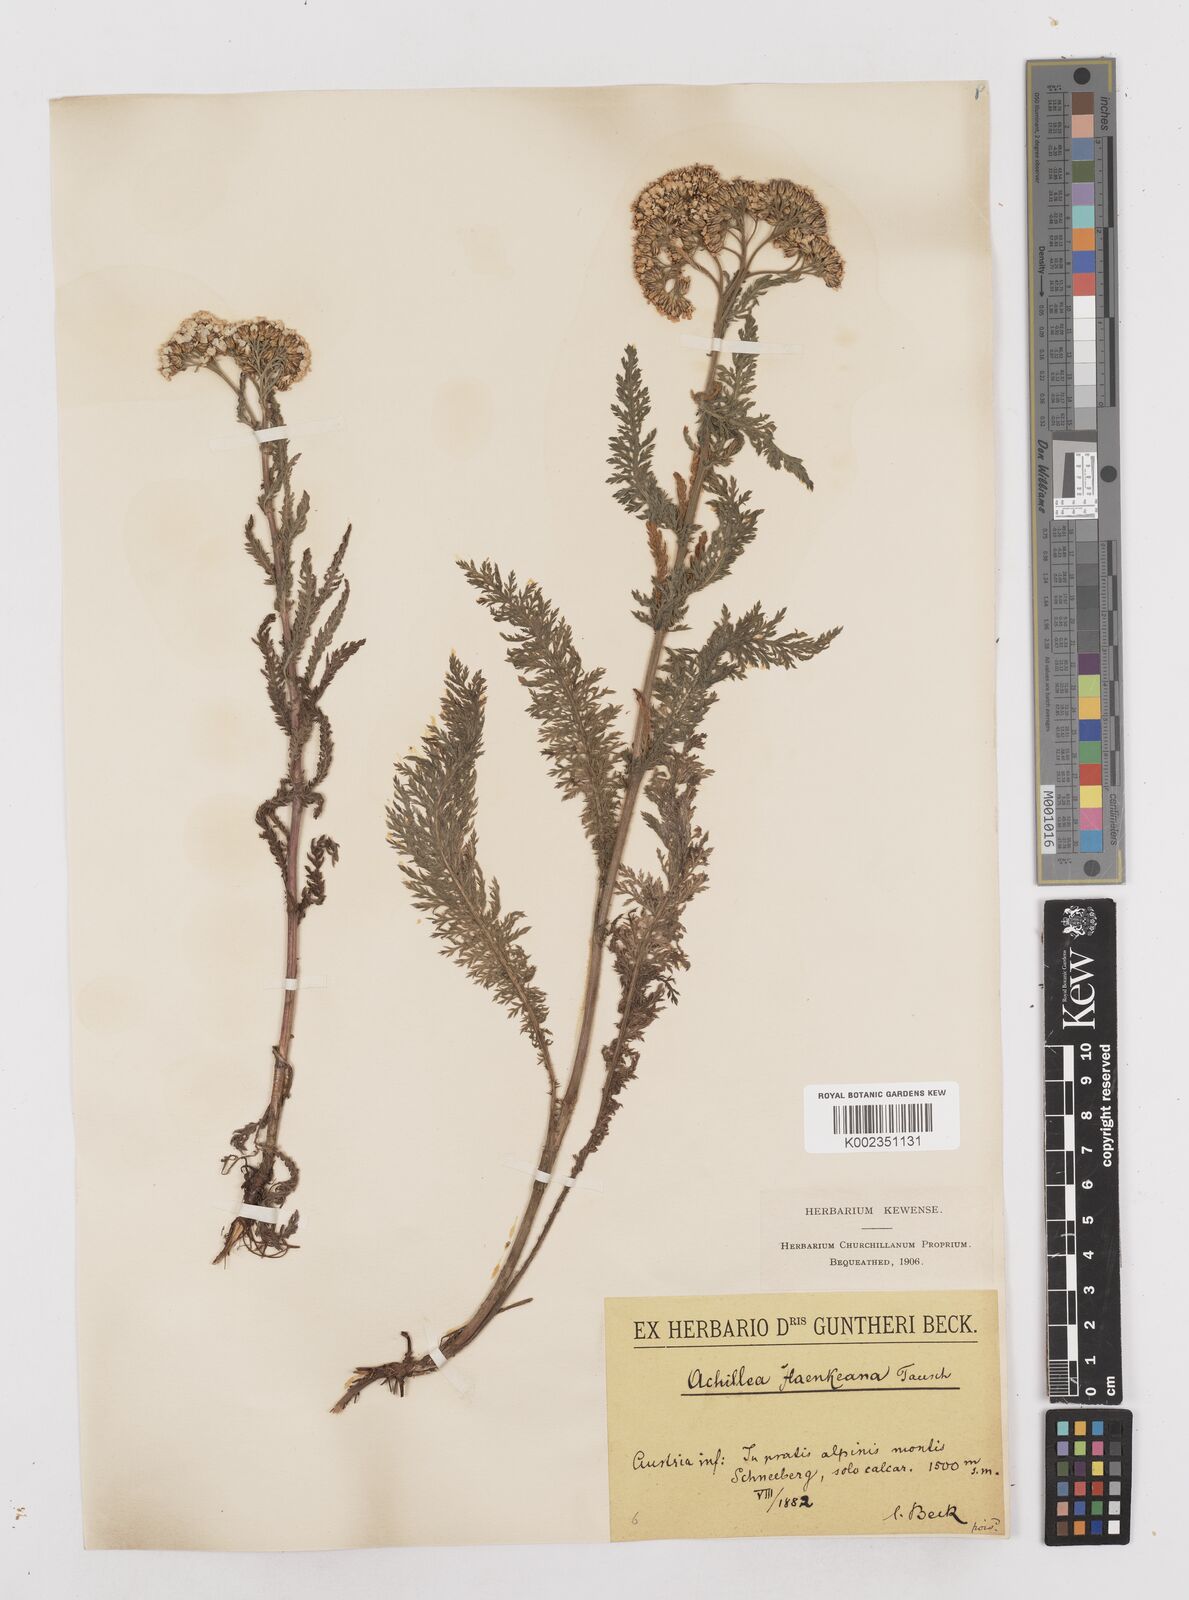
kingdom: Plantae
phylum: Tracheophyta
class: Magnoliopsida
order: Asterales
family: Asteraceae
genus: Achillea
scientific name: Achillea millefolium
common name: Yarrow
